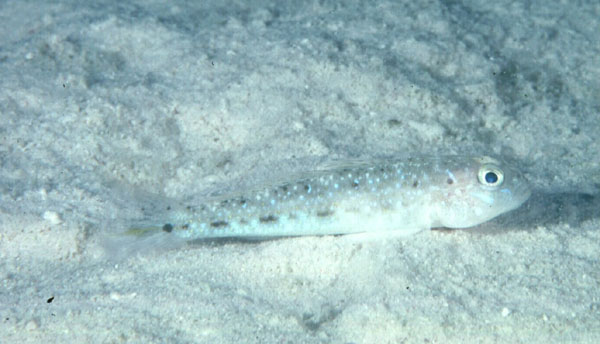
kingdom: Animalia
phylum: Chordata
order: Perciformes
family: Gobiidae
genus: Oplopomus
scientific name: Oplopomus oplopomus
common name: Spinecheek goby
